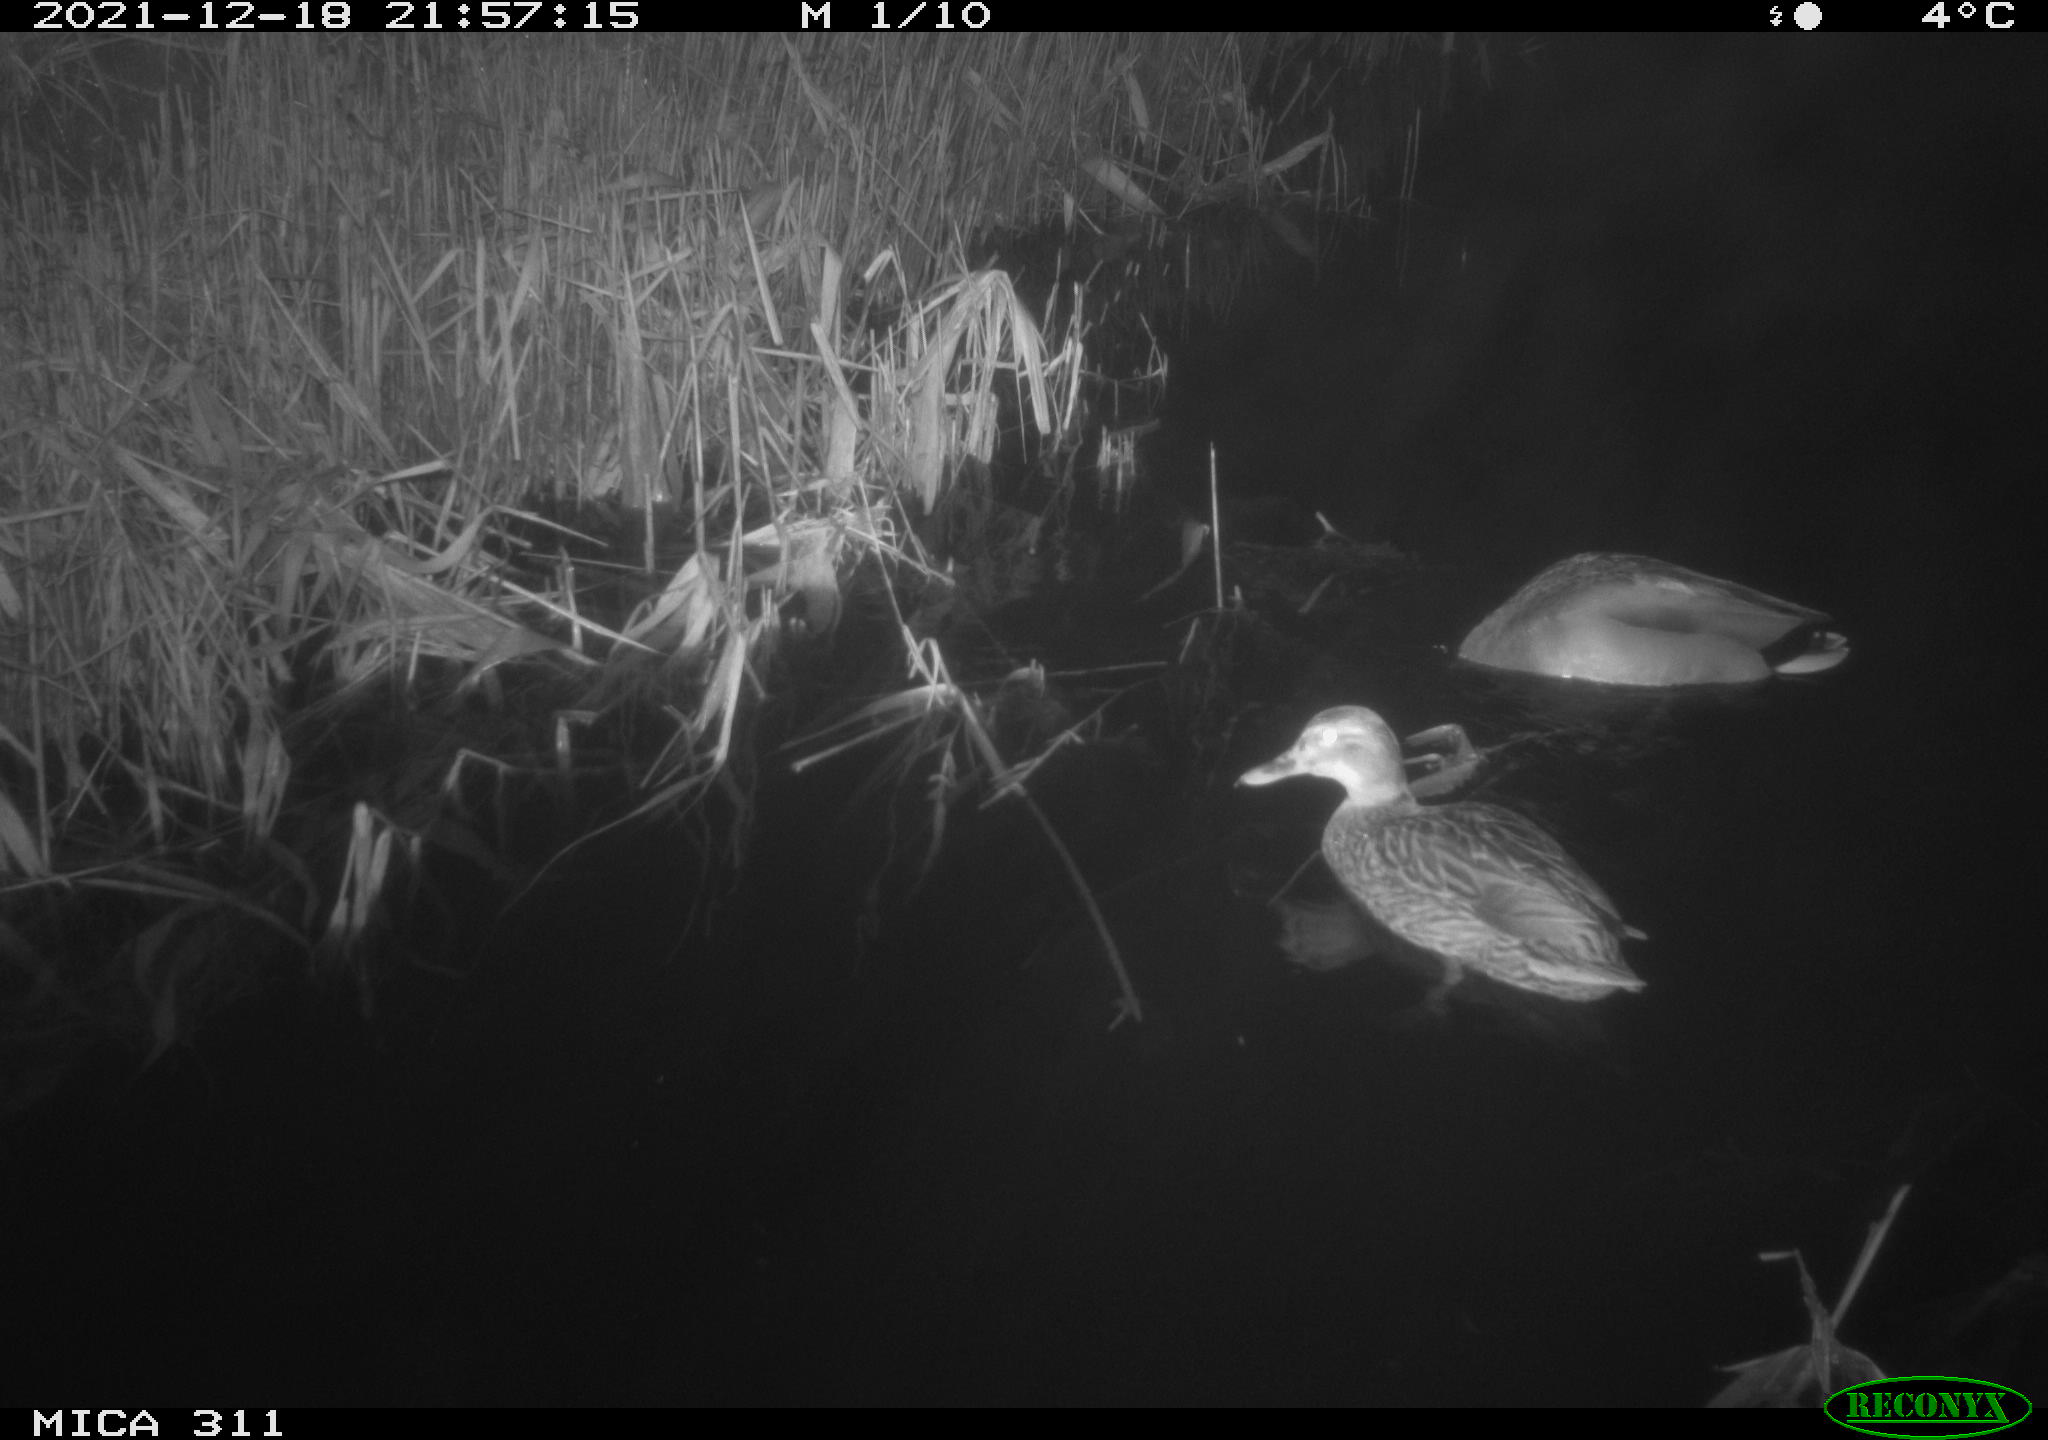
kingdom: Animalia
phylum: Chordata
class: Aves
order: Anseriformes
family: Anatidae
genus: Anas
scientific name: Anas platyrhynchos
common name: Mallard
